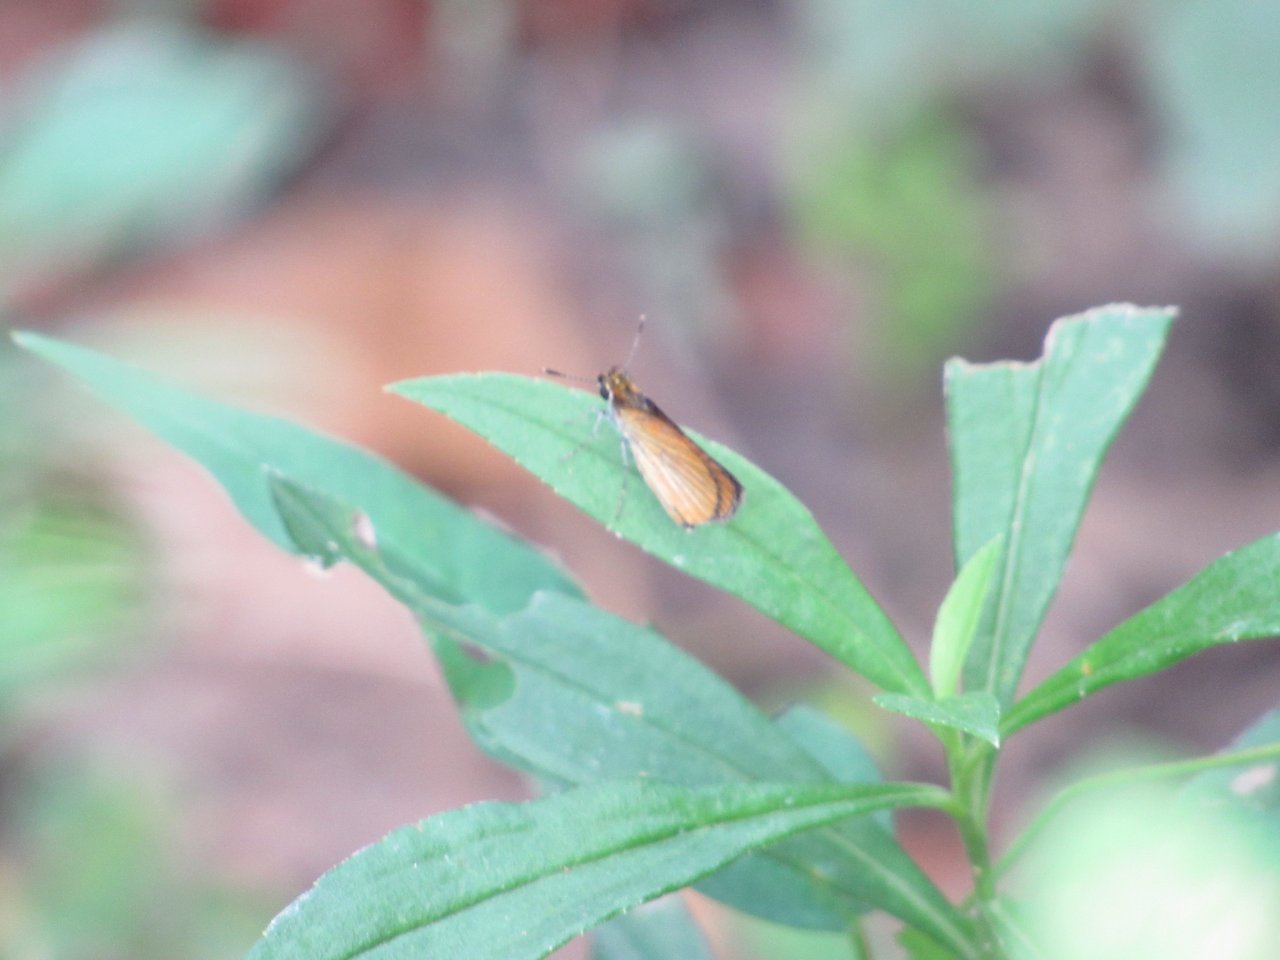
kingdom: Animalia
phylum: Arthropoda
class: Insecta
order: Lepidoptera
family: Hesperiidae
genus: Ancyloxypha
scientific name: Ancyloxypha numitor
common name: Least Skipper
